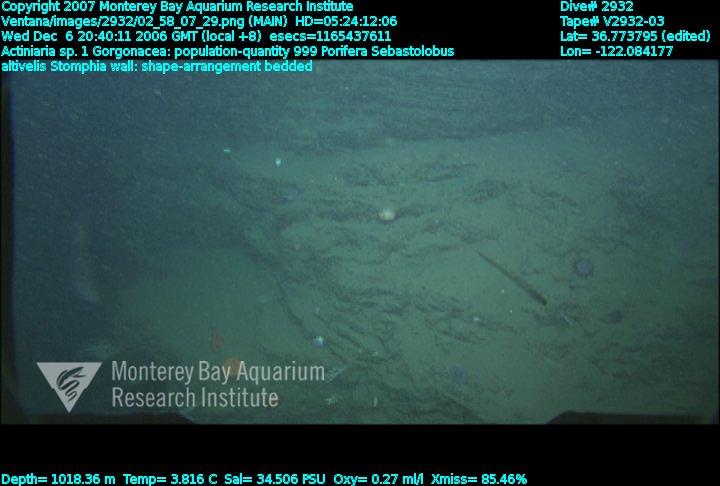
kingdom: Animalia
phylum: Porifera
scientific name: Porifera
